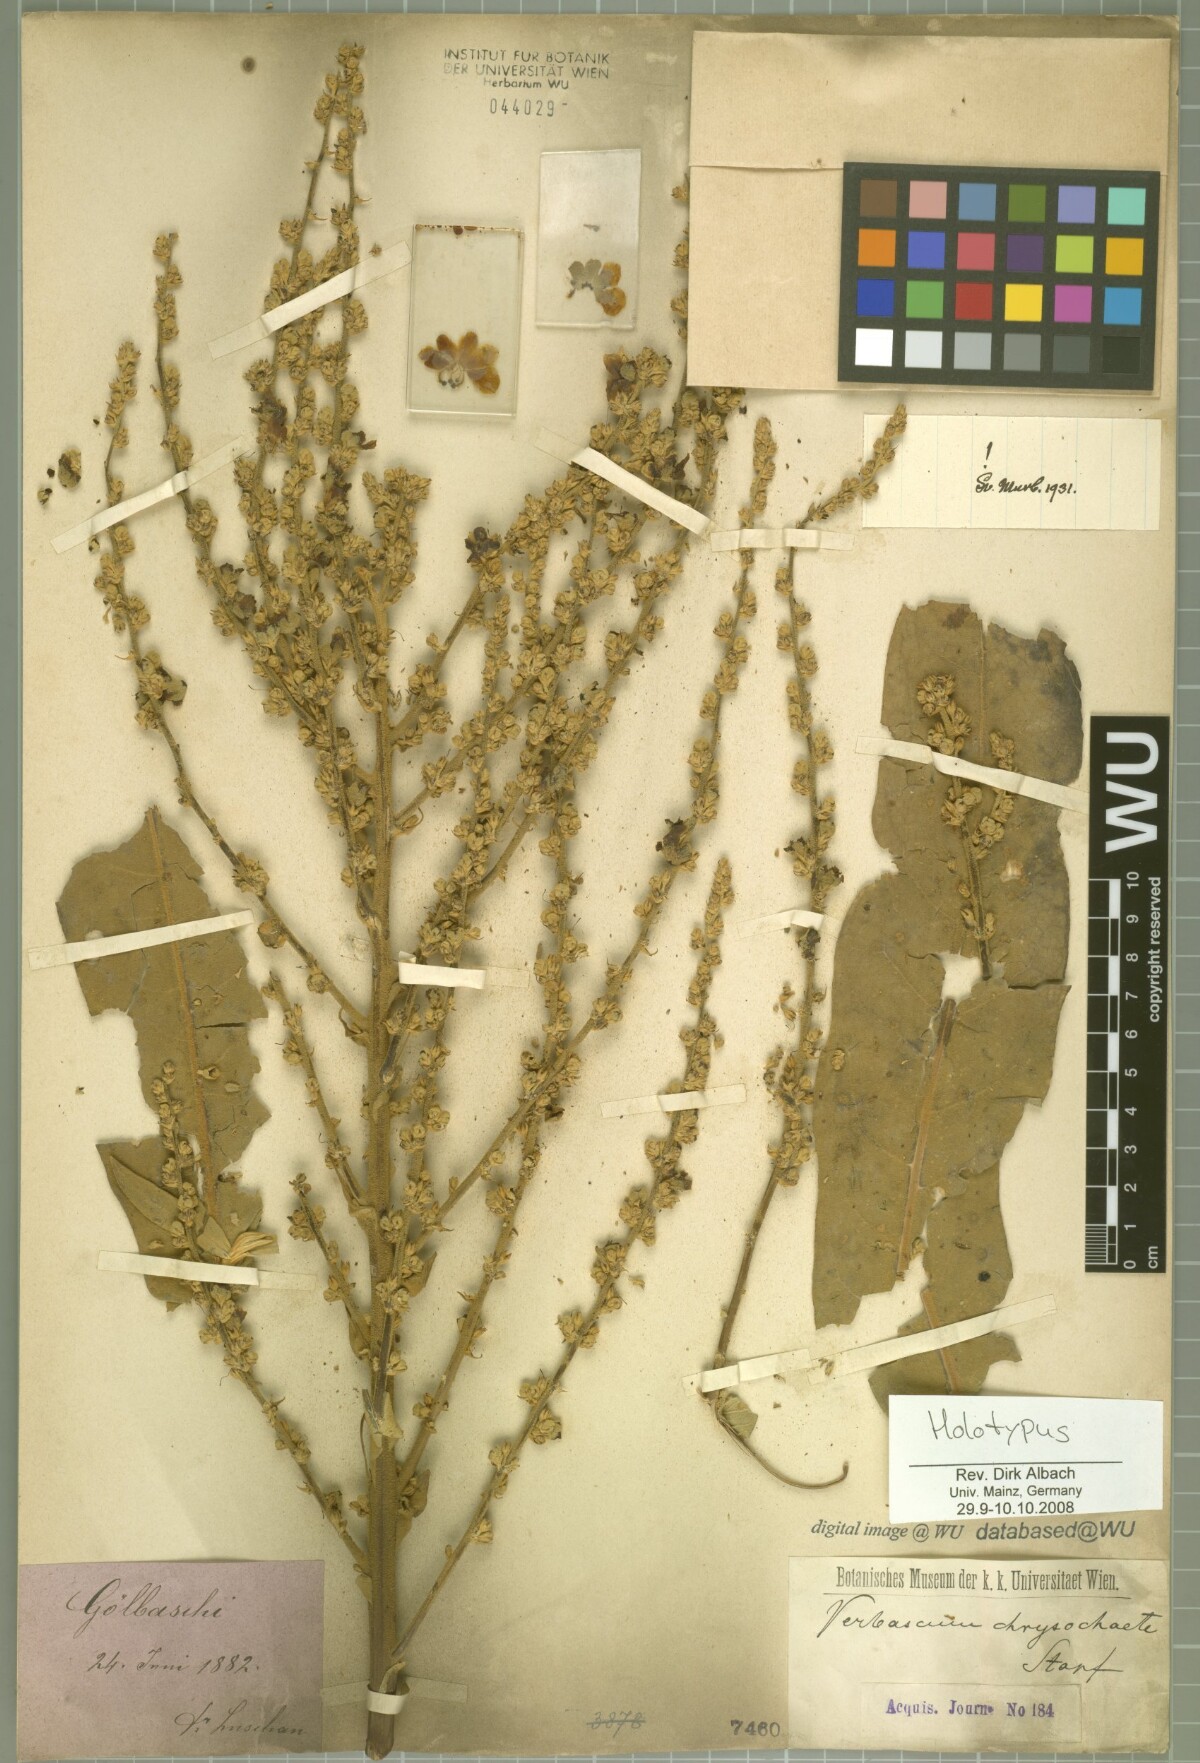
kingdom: Plantae
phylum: Tracheophyta
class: Magnoliopsida
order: Lamiales
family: Scrophulariaceae
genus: Verbascum
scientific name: Verbascum chrysochaete
